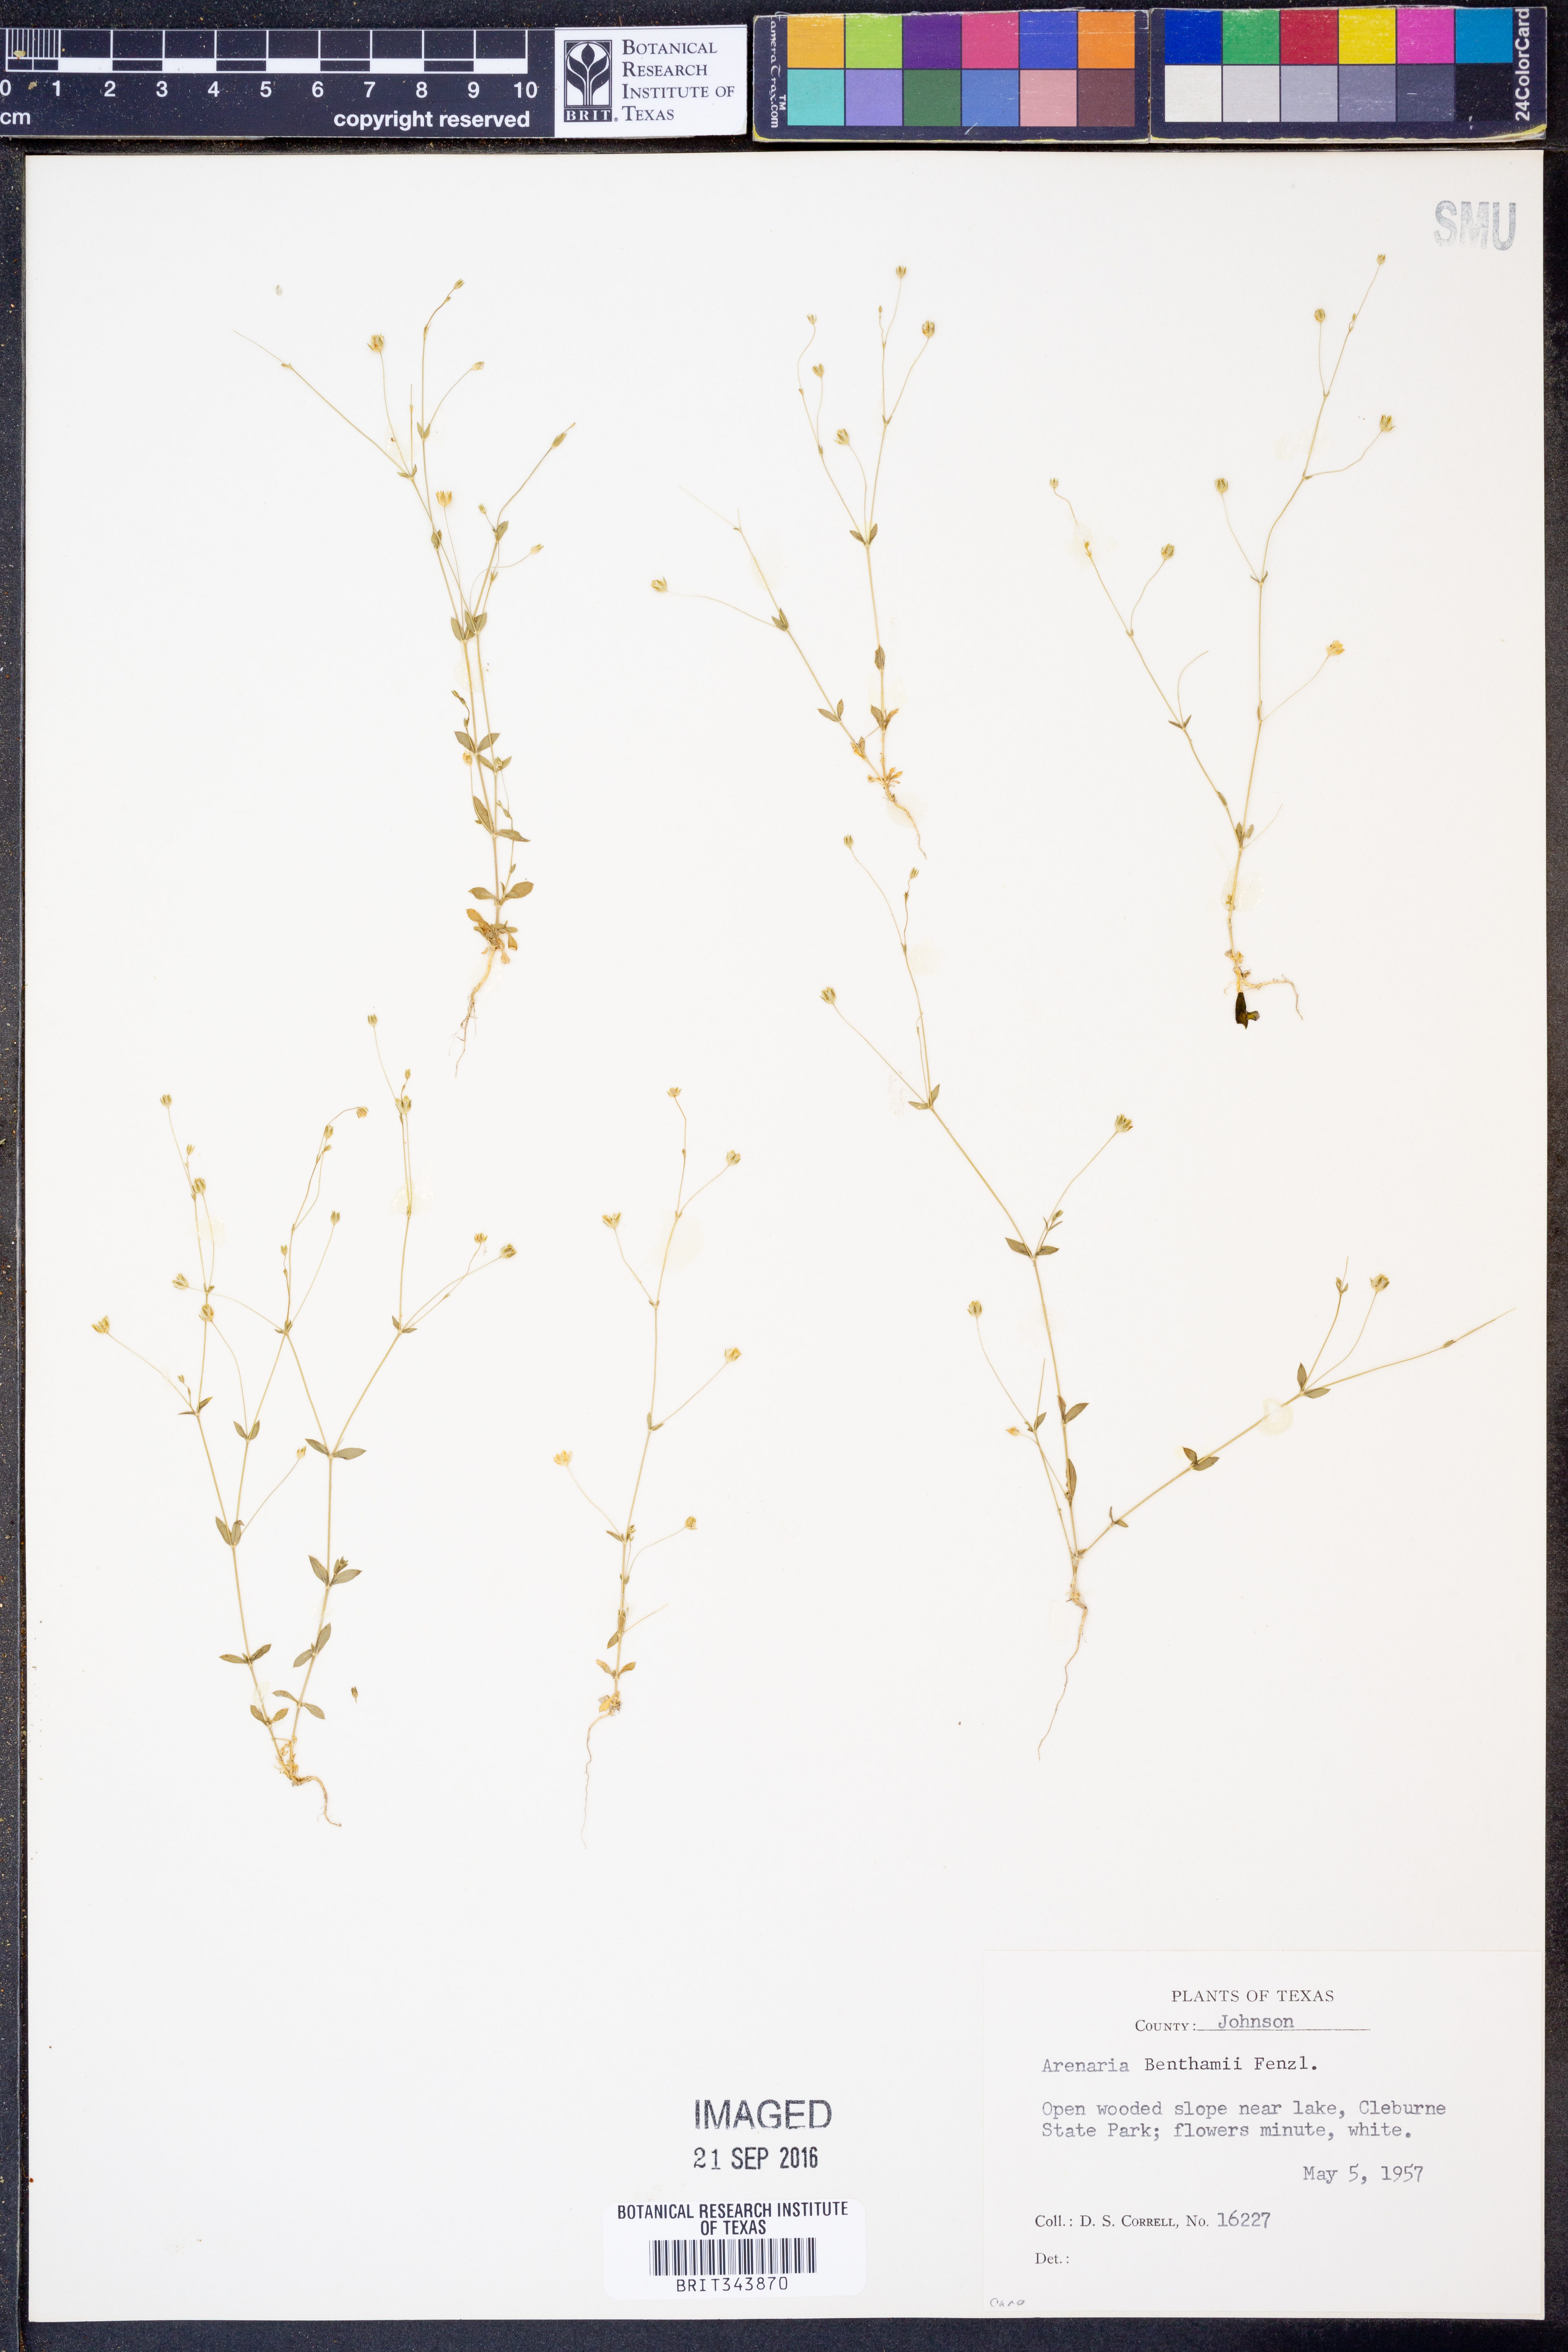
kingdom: Plantae
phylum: Tracheophyta
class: Magnoliopsida
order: Caryophyllales
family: Caryophyllaceae
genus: Arenaria
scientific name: Arenaria benthamii
